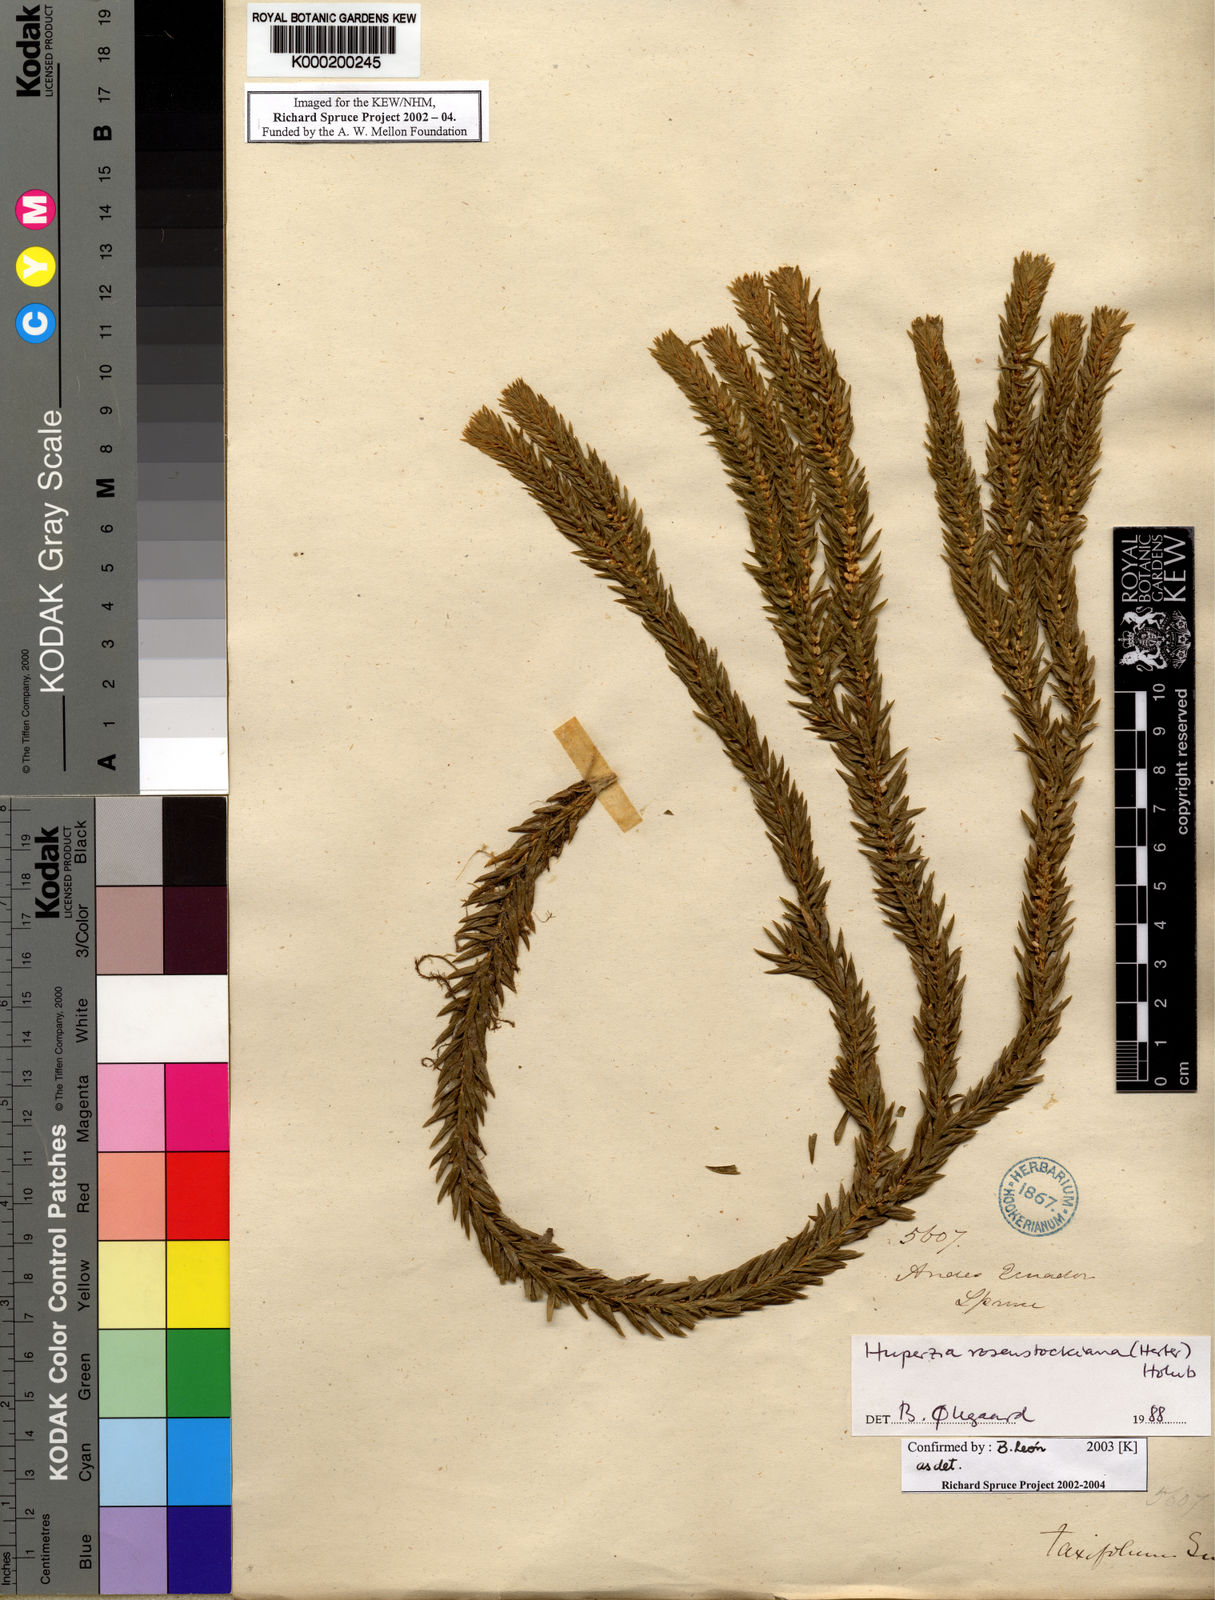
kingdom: Plantae
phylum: Tracheophyta
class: Lycopodiopsida
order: Lycopodiales
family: Lycopodiaceae
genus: Phlegmariurus
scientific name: Phlegmariurus rosenstockianus
